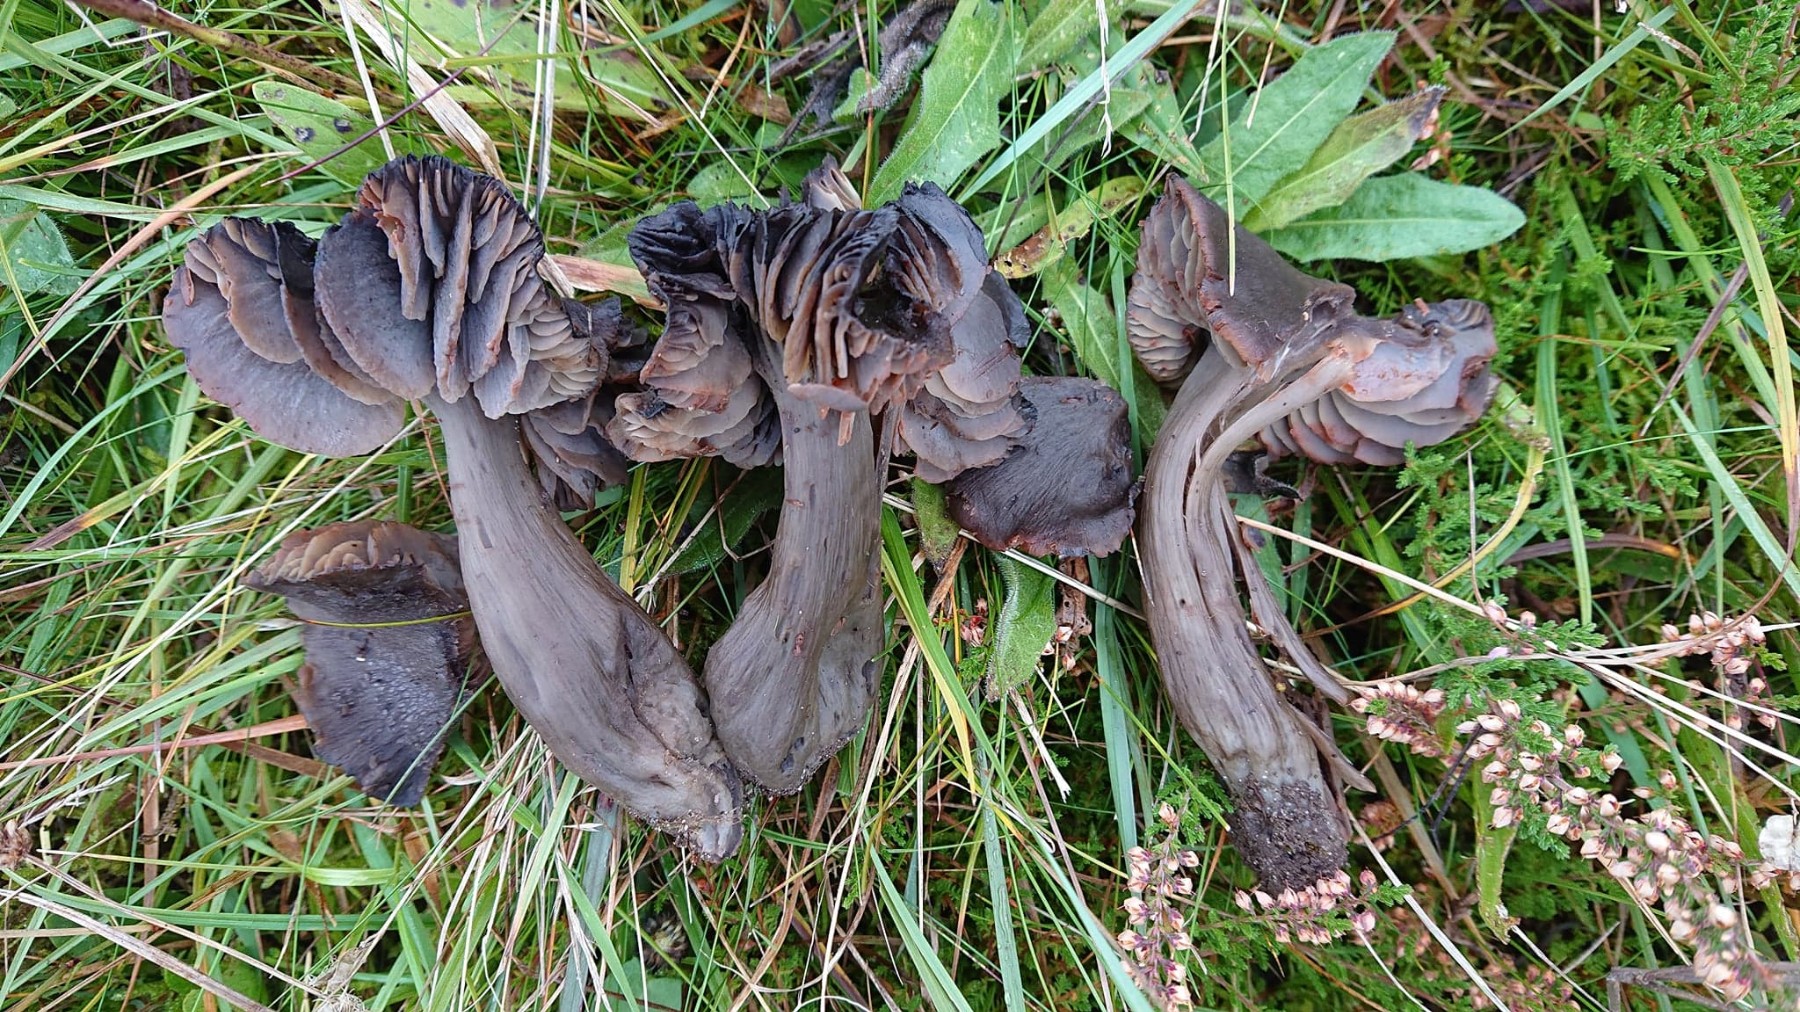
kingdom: Fungi
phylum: Basidiomycota
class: Agaricomycetes
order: Agaricales
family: Hygrophoraceae
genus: Neohygrocybe
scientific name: Neohygrocybe ovina
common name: rødmende vokshat
